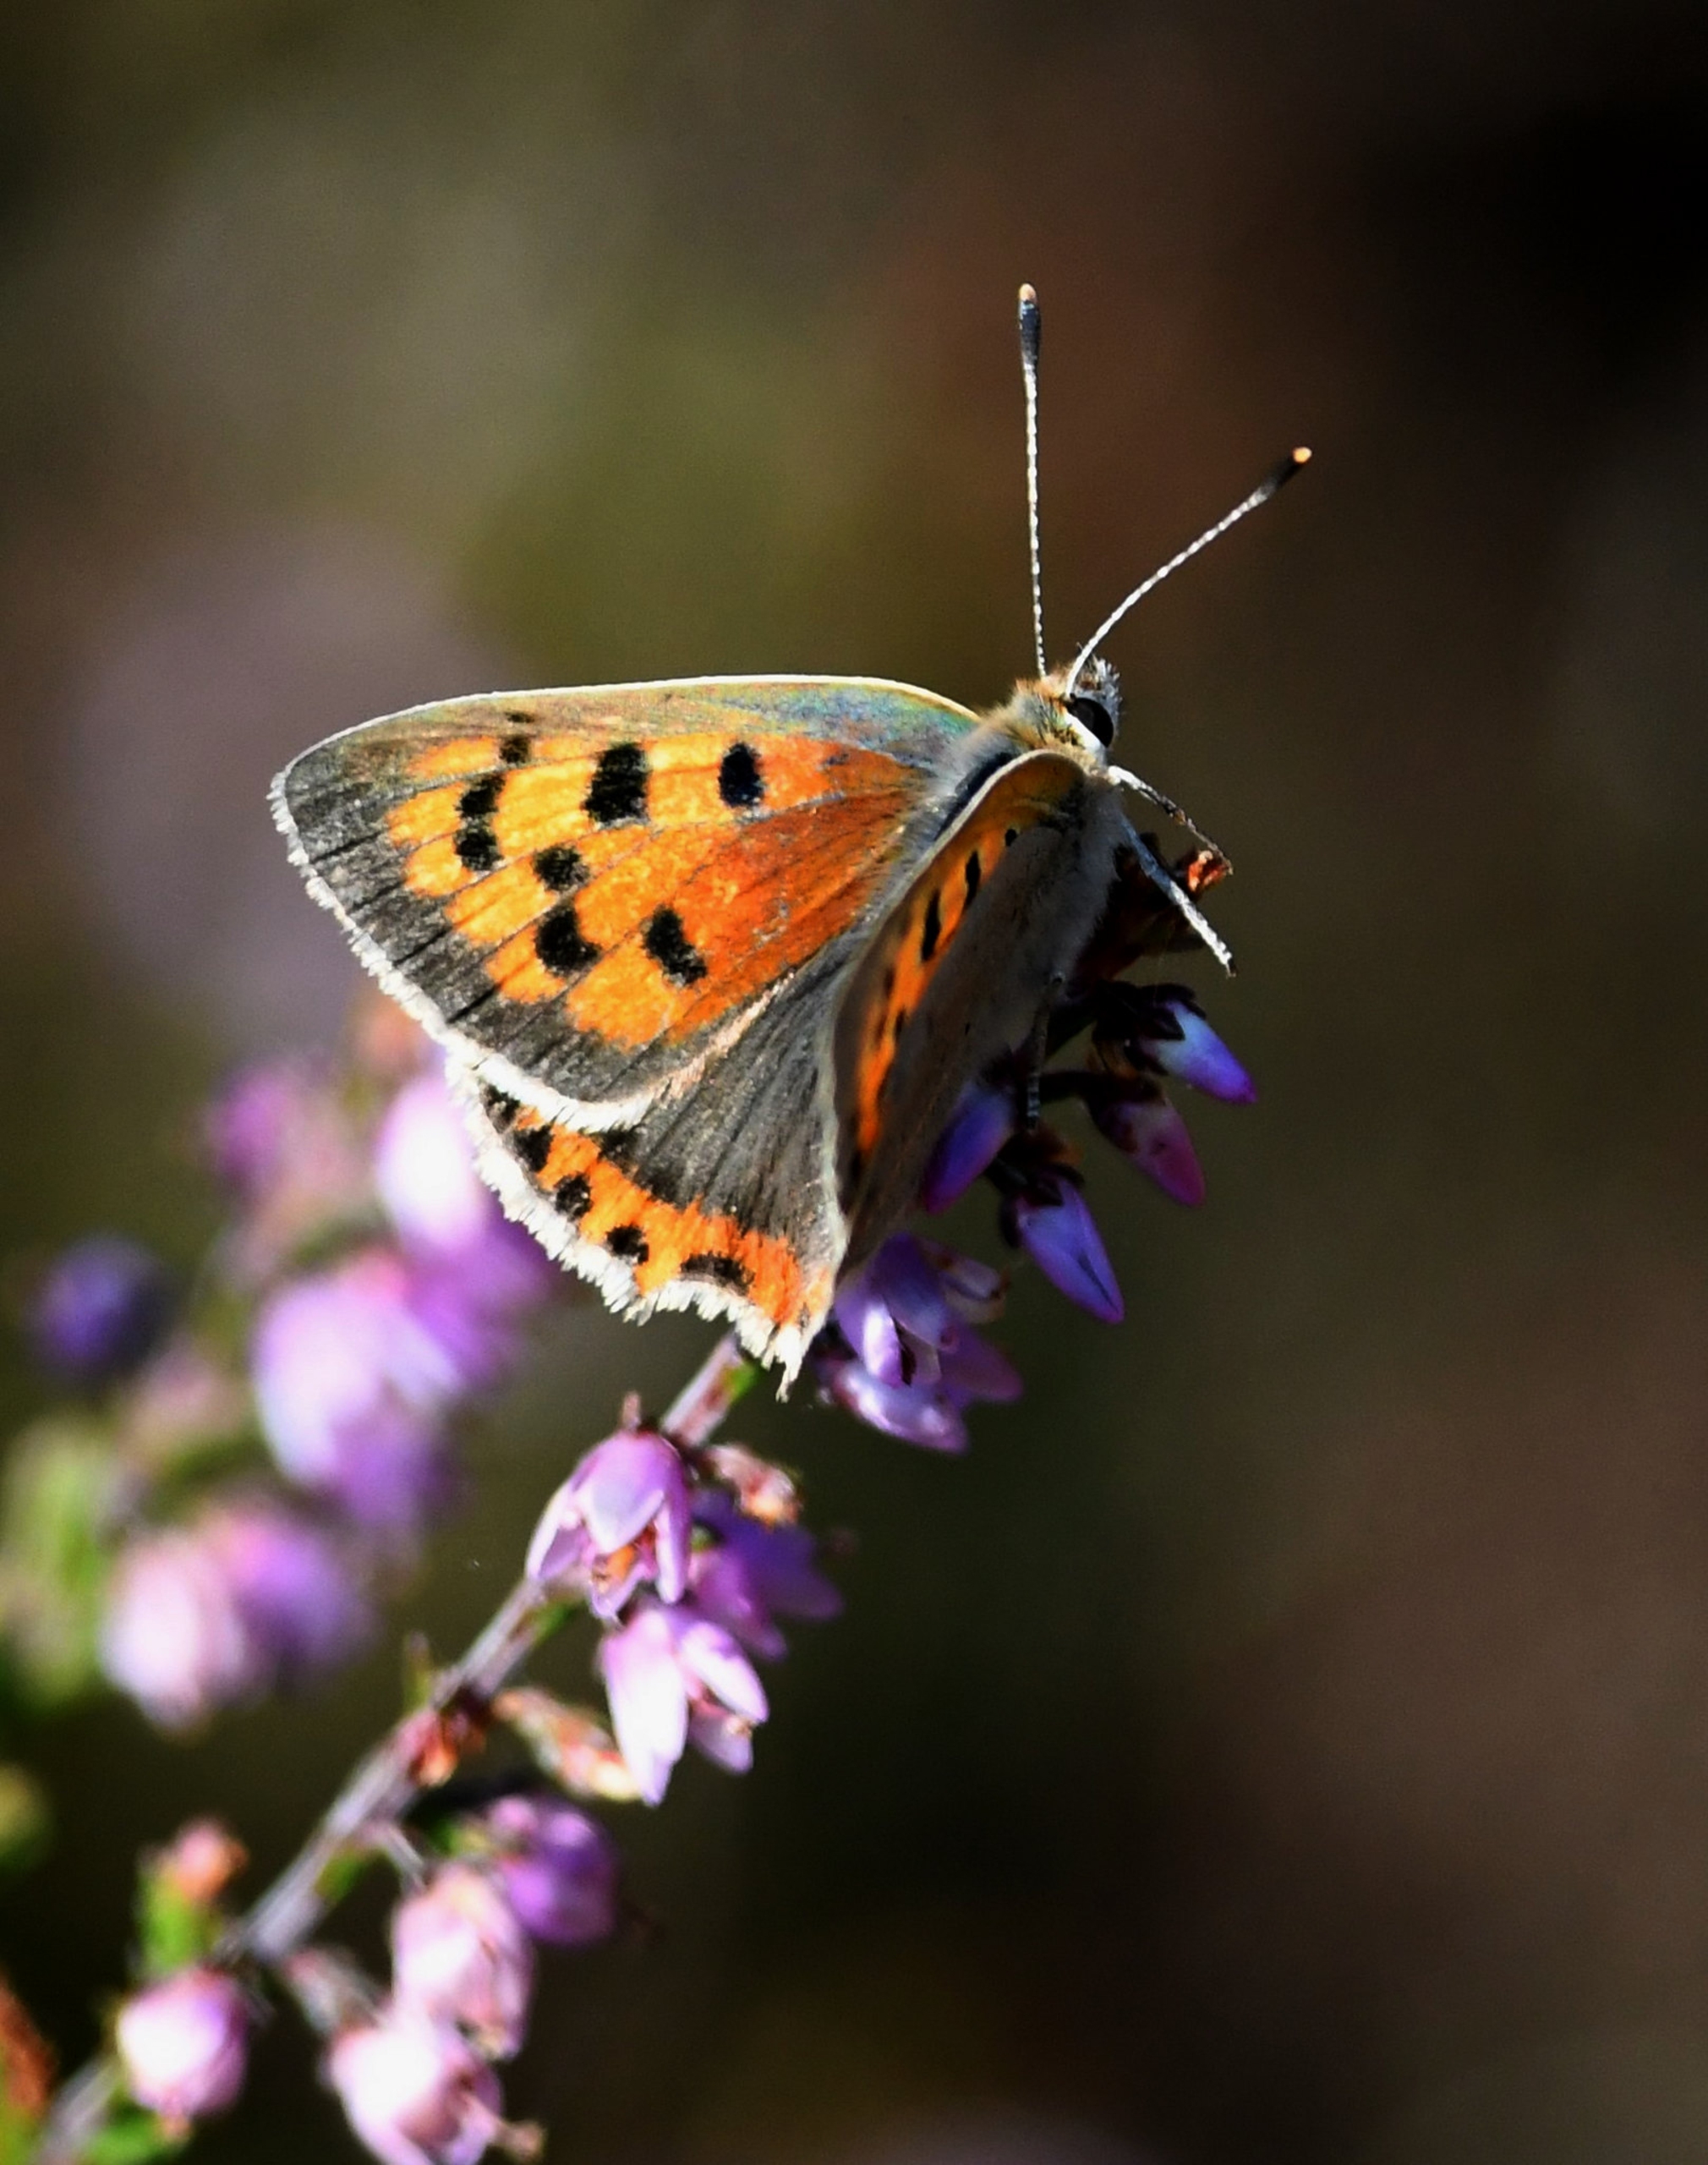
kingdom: Animalia
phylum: Arthropoda
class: Insecta
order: Lepidoptera
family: Lycaenidae
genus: Lycaena
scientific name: Lycaena phlaeas
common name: Lille ildfugl
